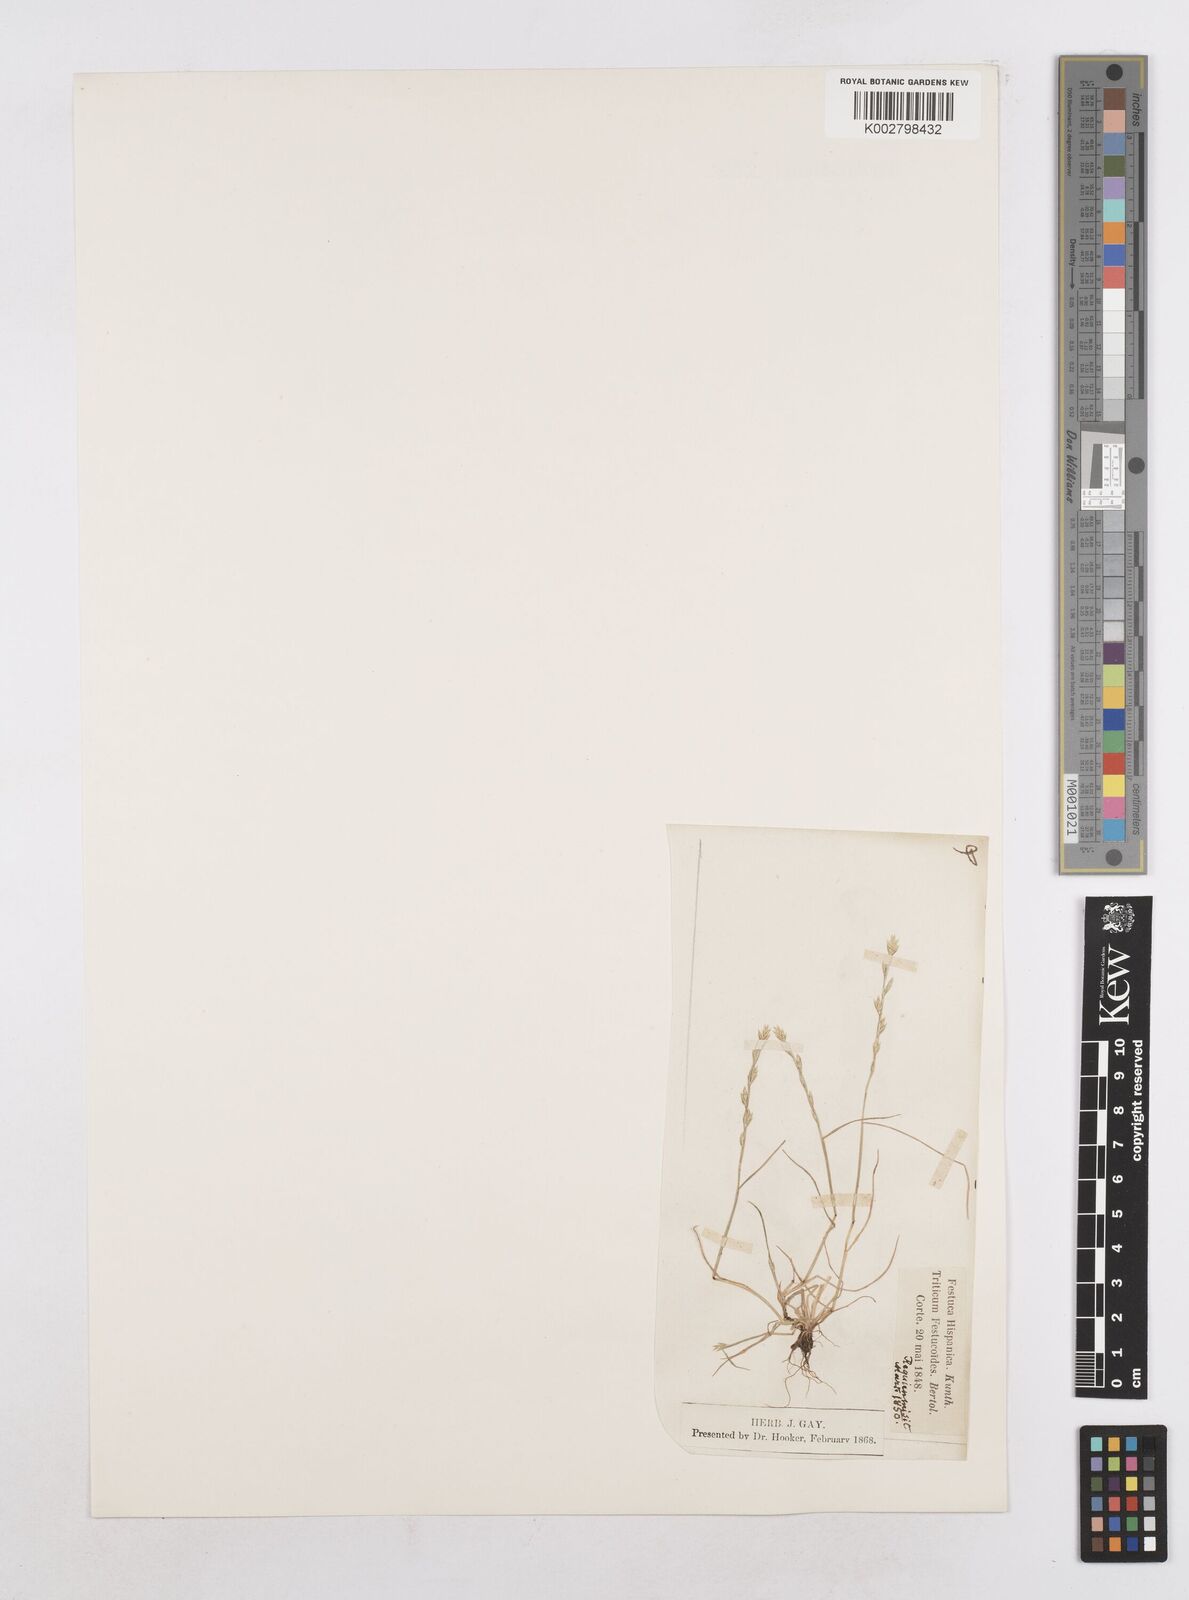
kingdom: Plantae
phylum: Tracheophyta
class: Liliopsida
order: Poales
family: Poaceae
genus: Festuca
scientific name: Festuca lachenalii
